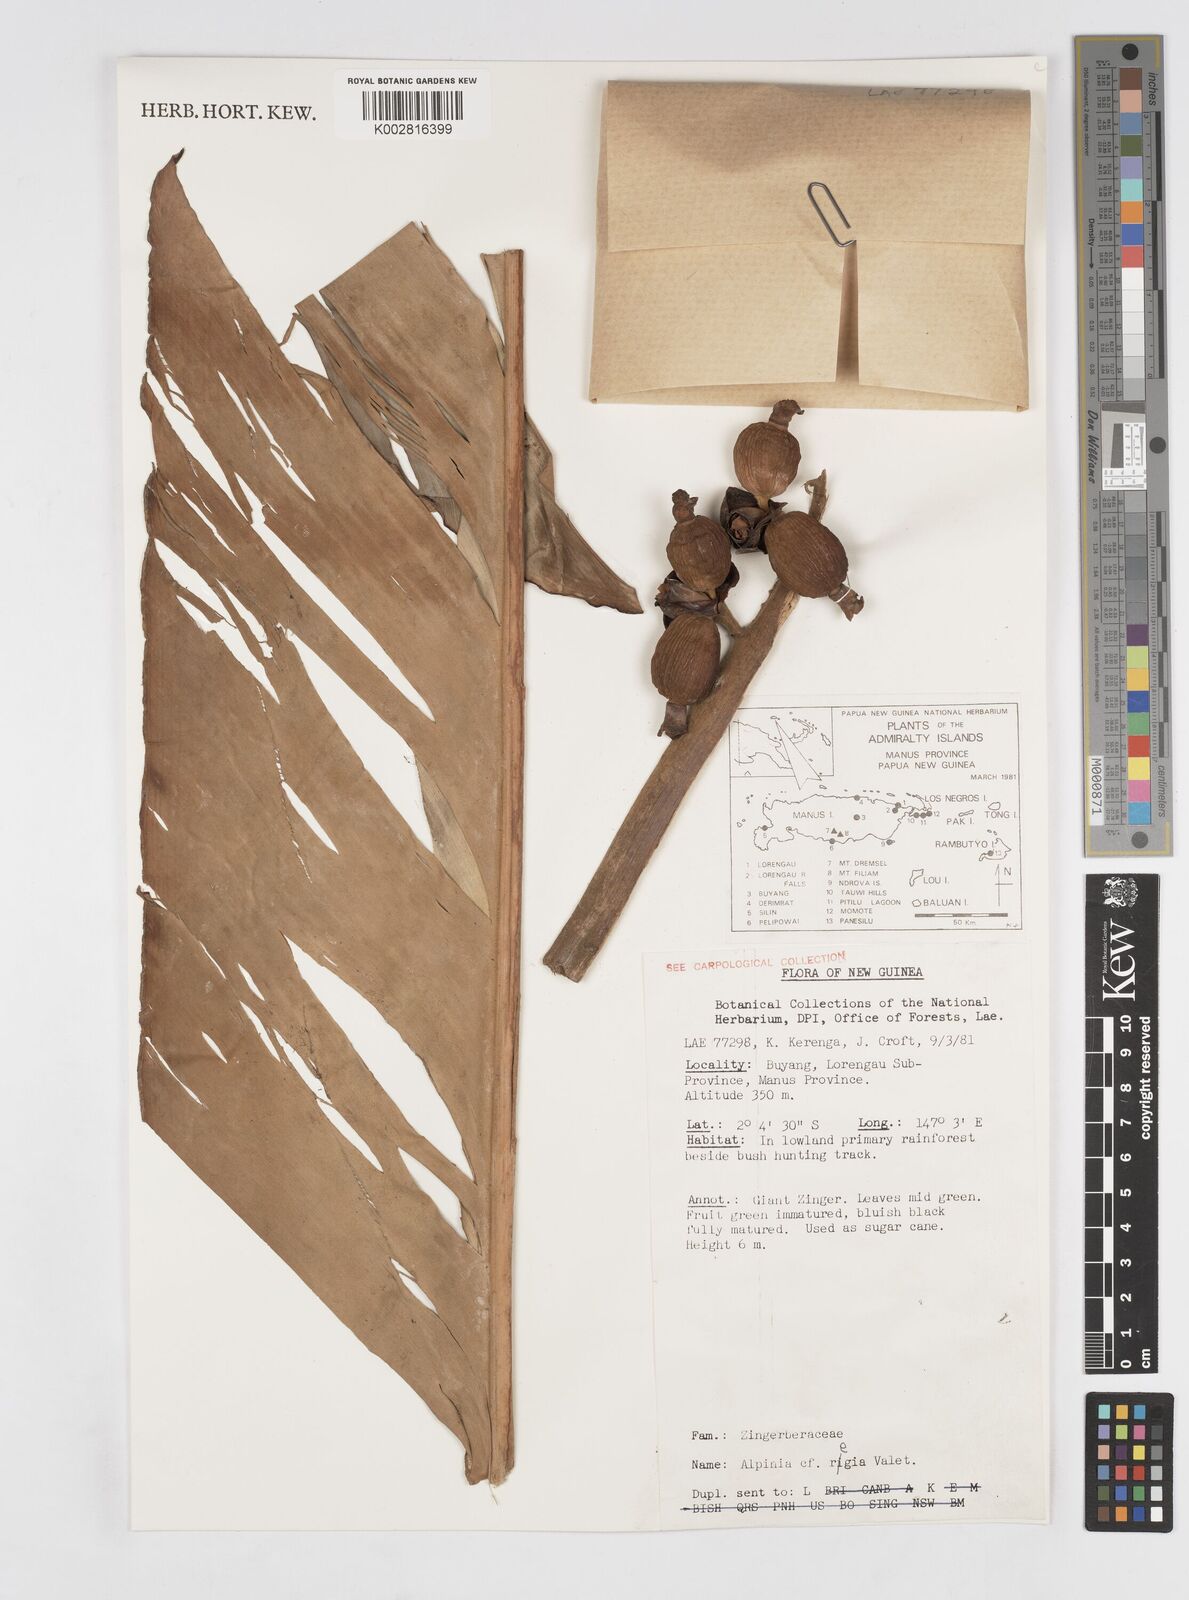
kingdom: Plantae
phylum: Tracheophyta
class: Liliopsida
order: Zingiberales
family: Zingiberaceae
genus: Alpinia
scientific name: Alpinia regia
